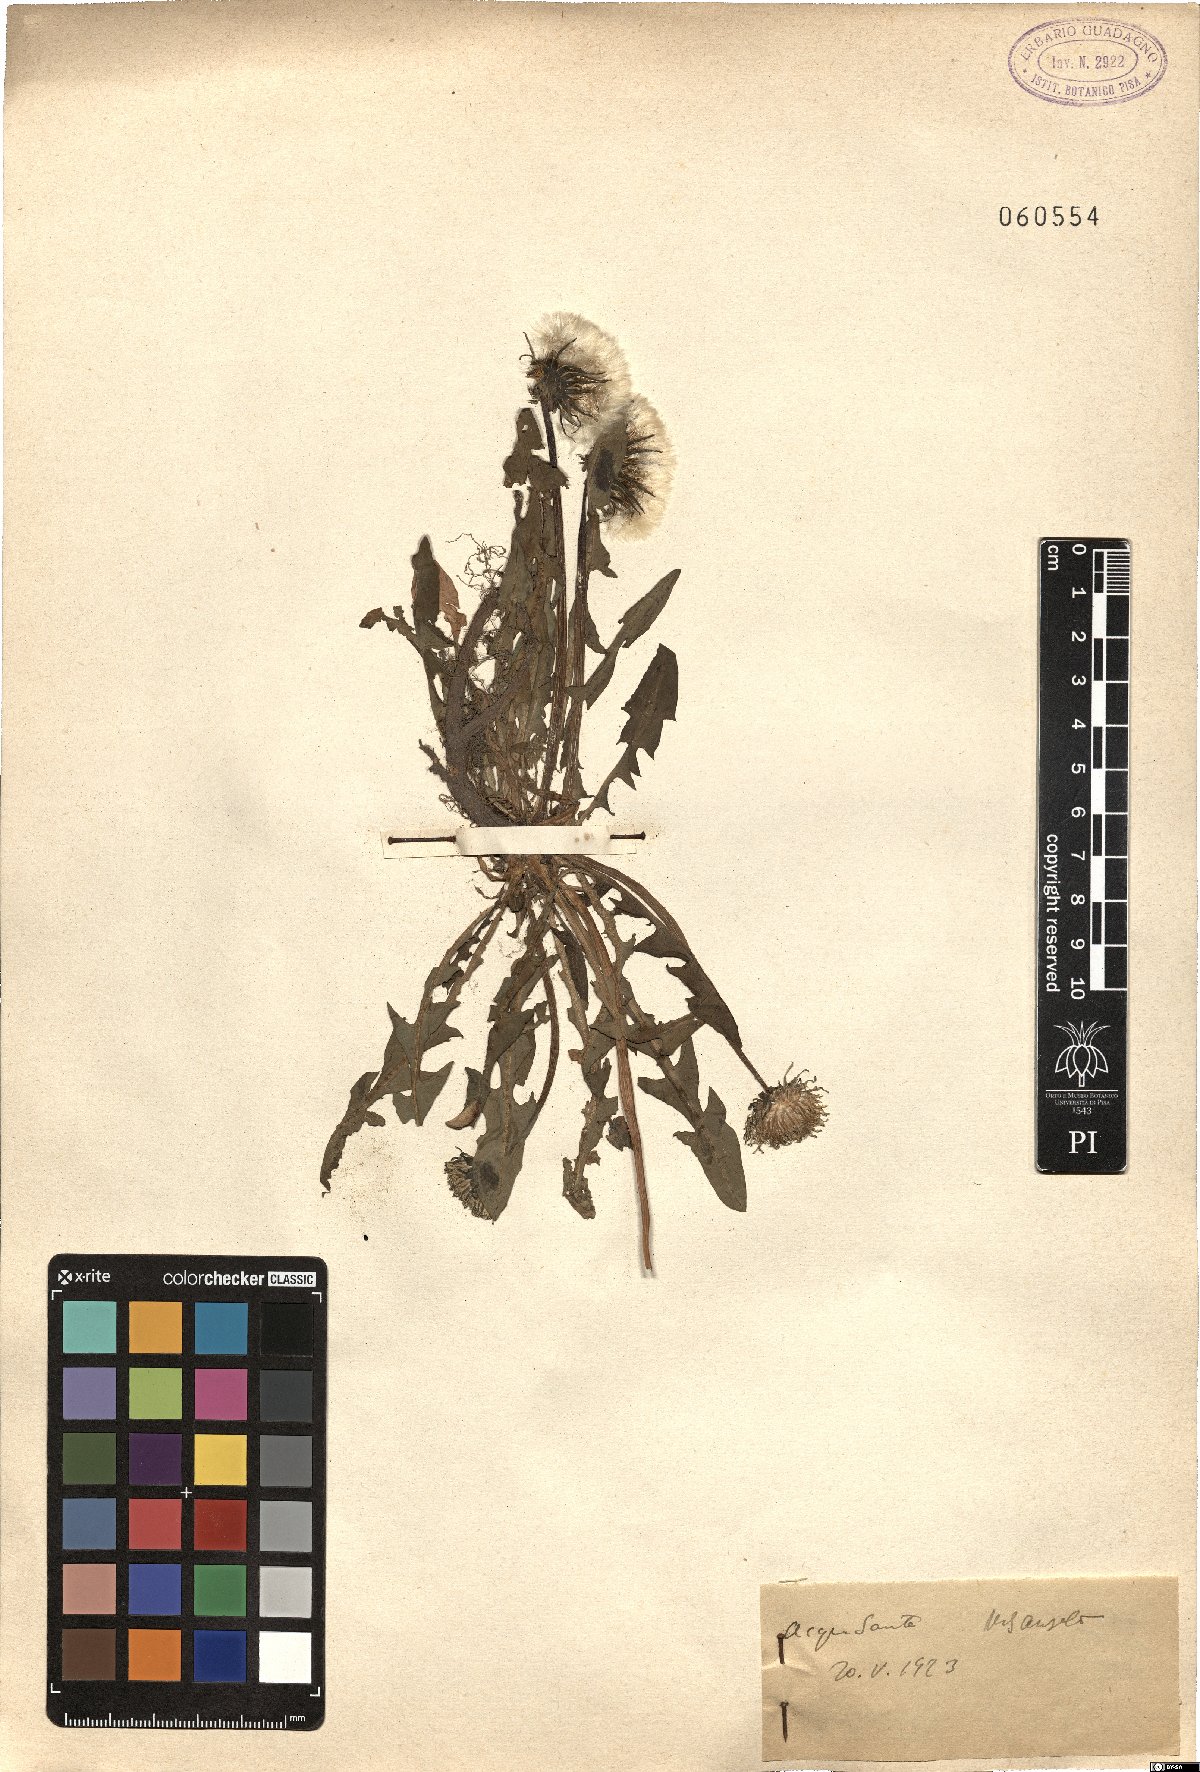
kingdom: Plantae
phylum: Tracheophyta
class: Magnoliopsida
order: Asterales
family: Asteraceae
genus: Taraxacum
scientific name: Taraxacum
